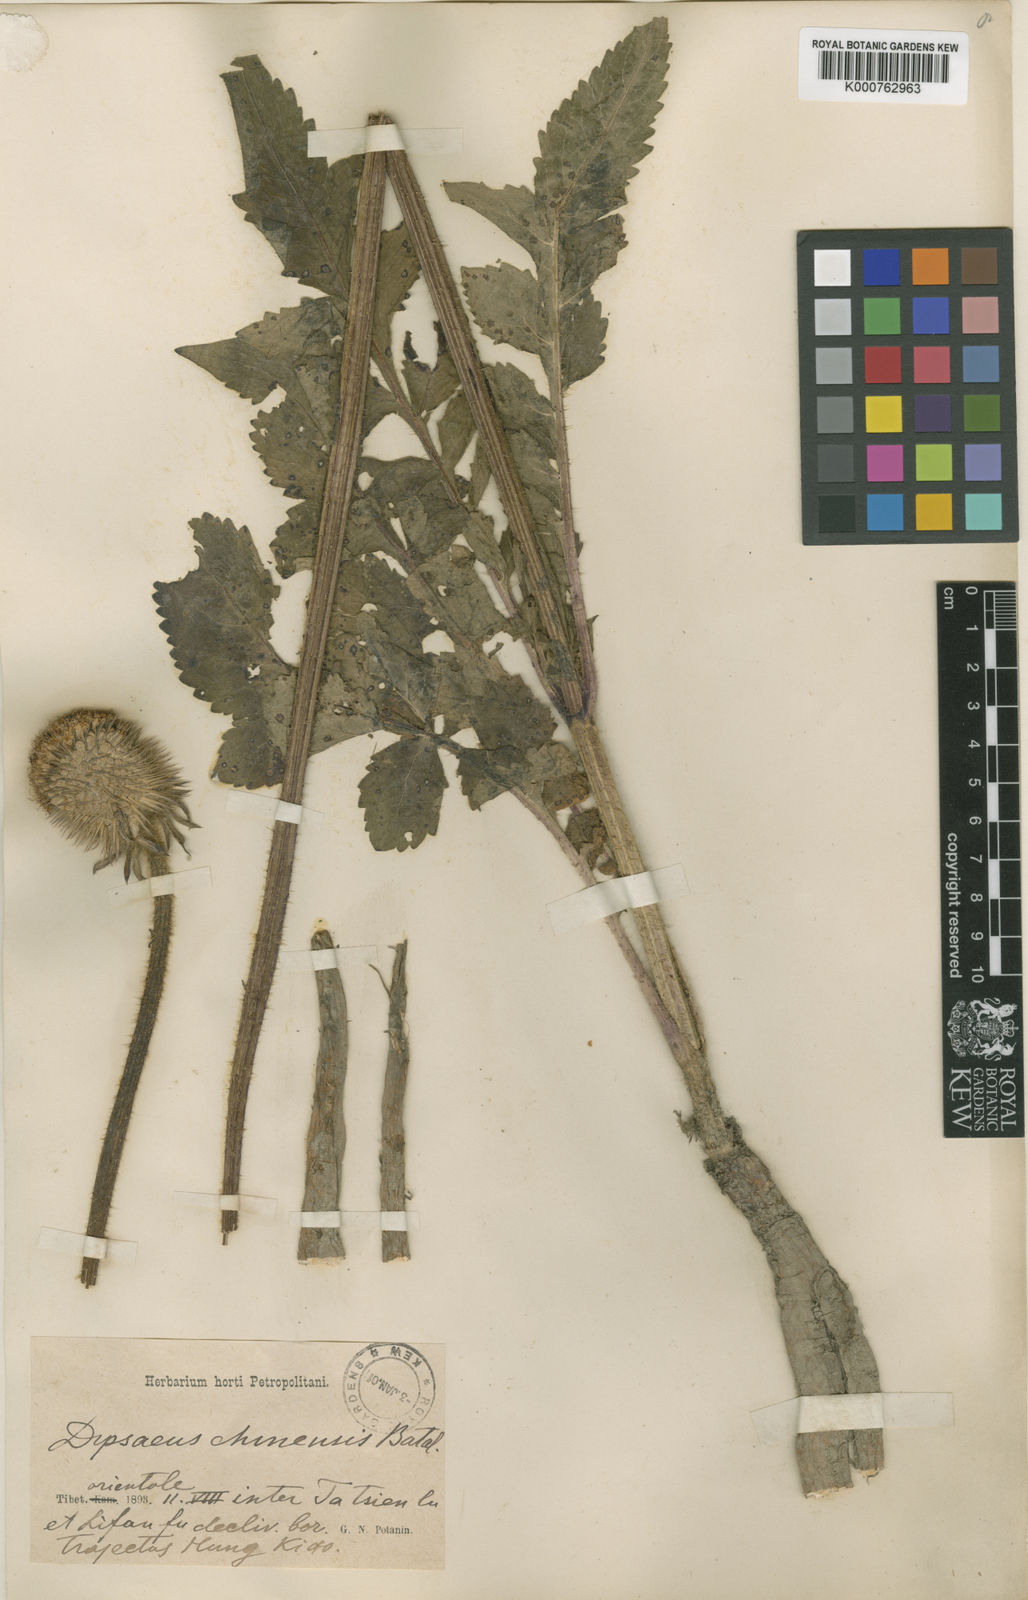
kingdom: Plantae
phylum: Tracheophyta
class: Magnoliopsida
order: Dipsacales
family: Caprifoliaceae
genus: Dipsacus
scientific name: Dipsacus inermis
